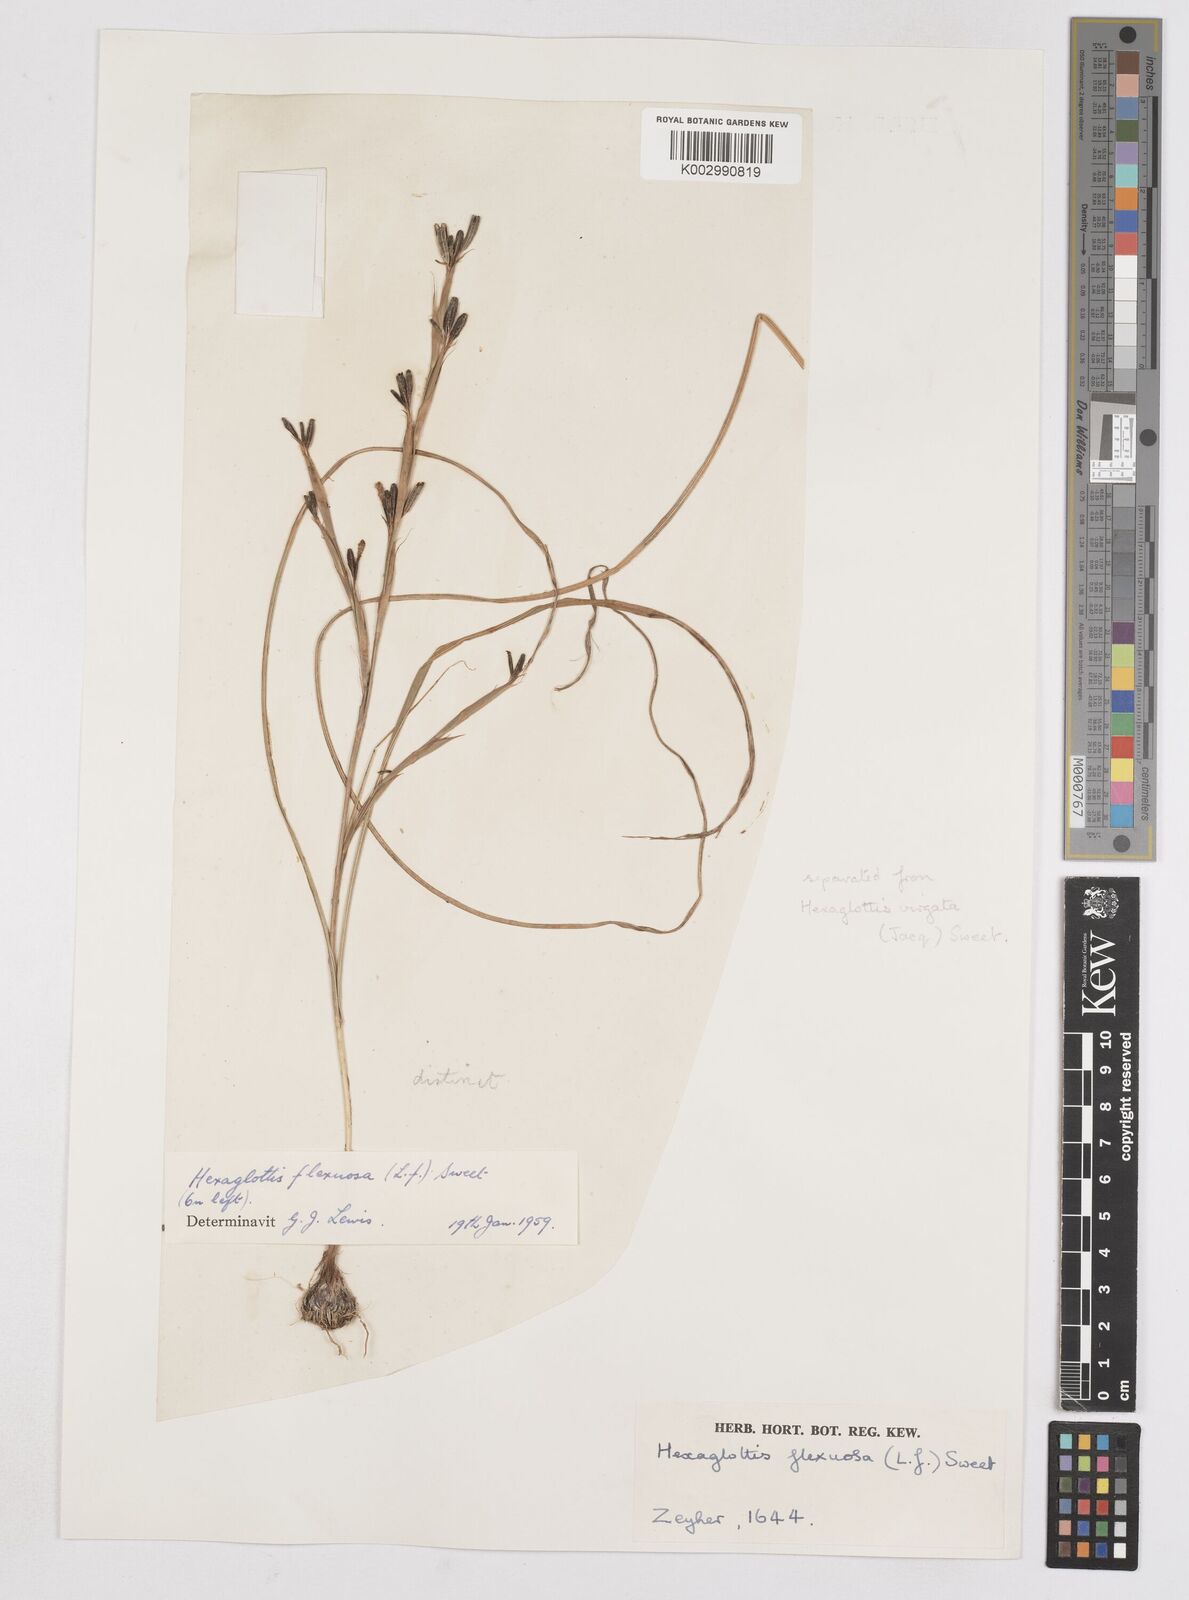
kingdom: Plantae
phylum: Tracheophyta
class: Liliopsida
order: Asparagales
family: Iridaceae
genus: Moraea
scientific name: Moraea lewisiae
